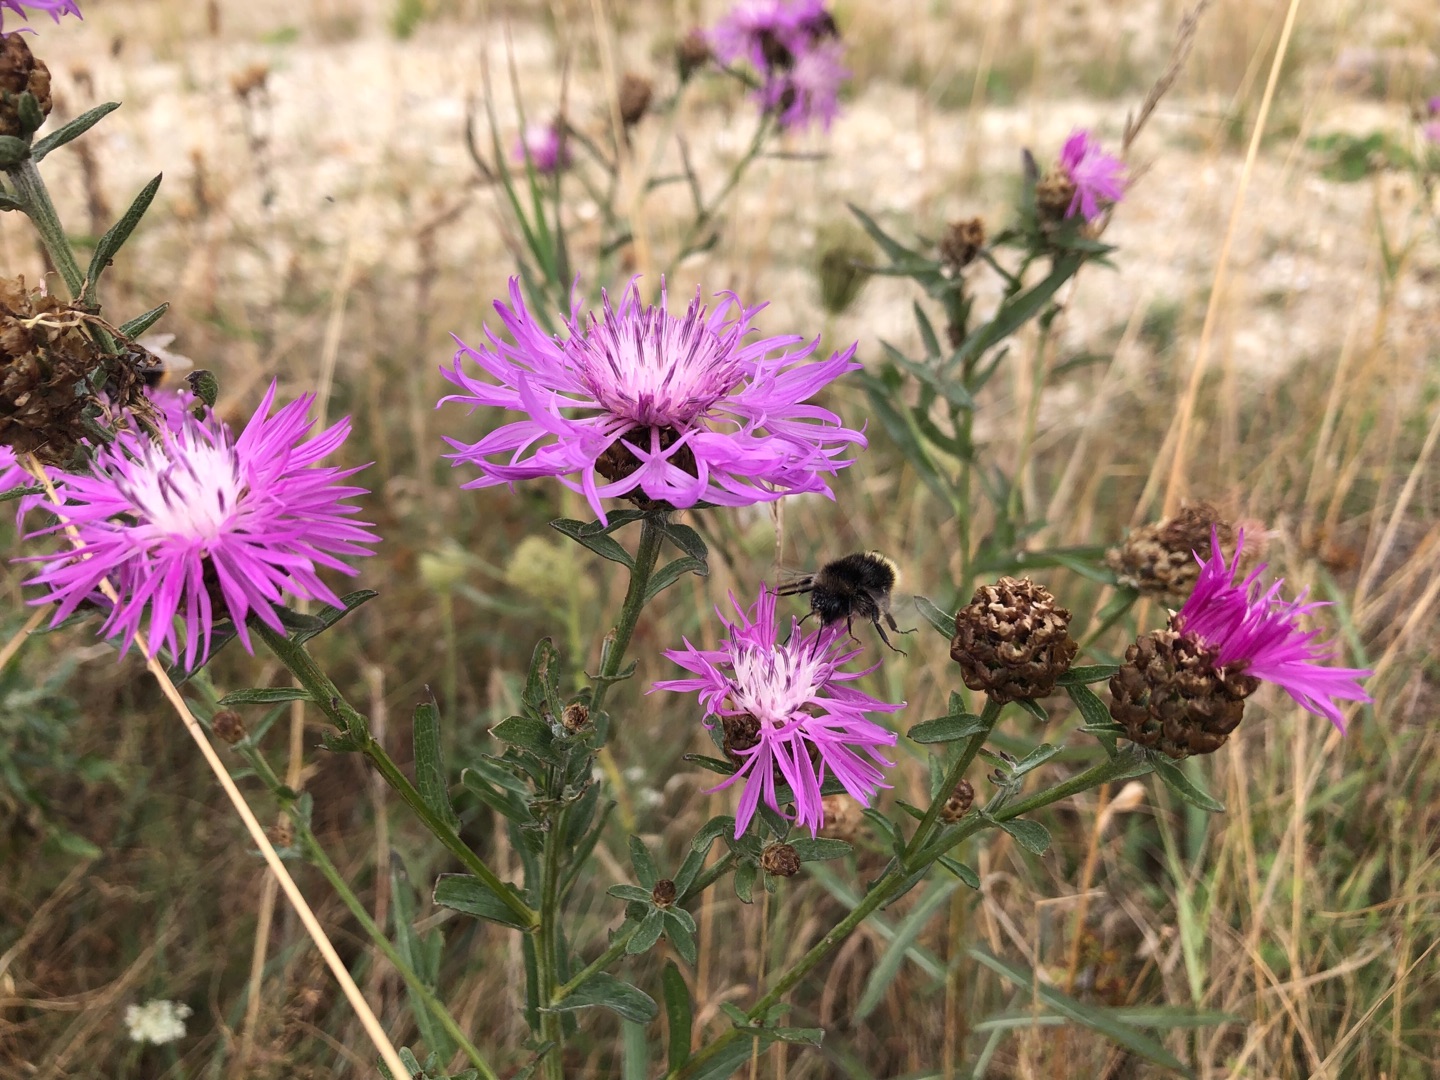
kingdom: Plantae
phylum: Tracheophyta
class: Magnoliopsida
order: Asterales
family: Asteraceae
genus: Centaurea
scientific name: Centaurea jacea
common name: Almindelig knopurt
